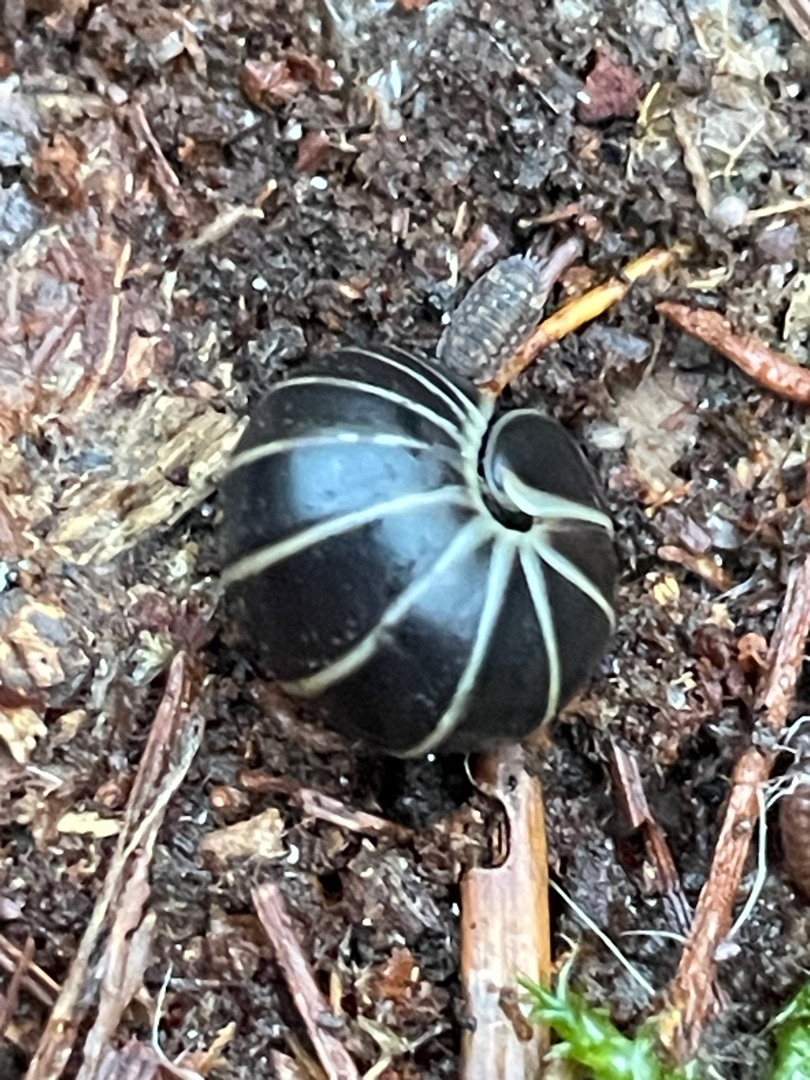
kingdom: Animalia
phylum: Arthropoda
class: Diplopoda
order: Glomerida
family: Glomeridae
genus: Glomeris
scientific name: Glomeris marginata
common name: Kugletusindben
